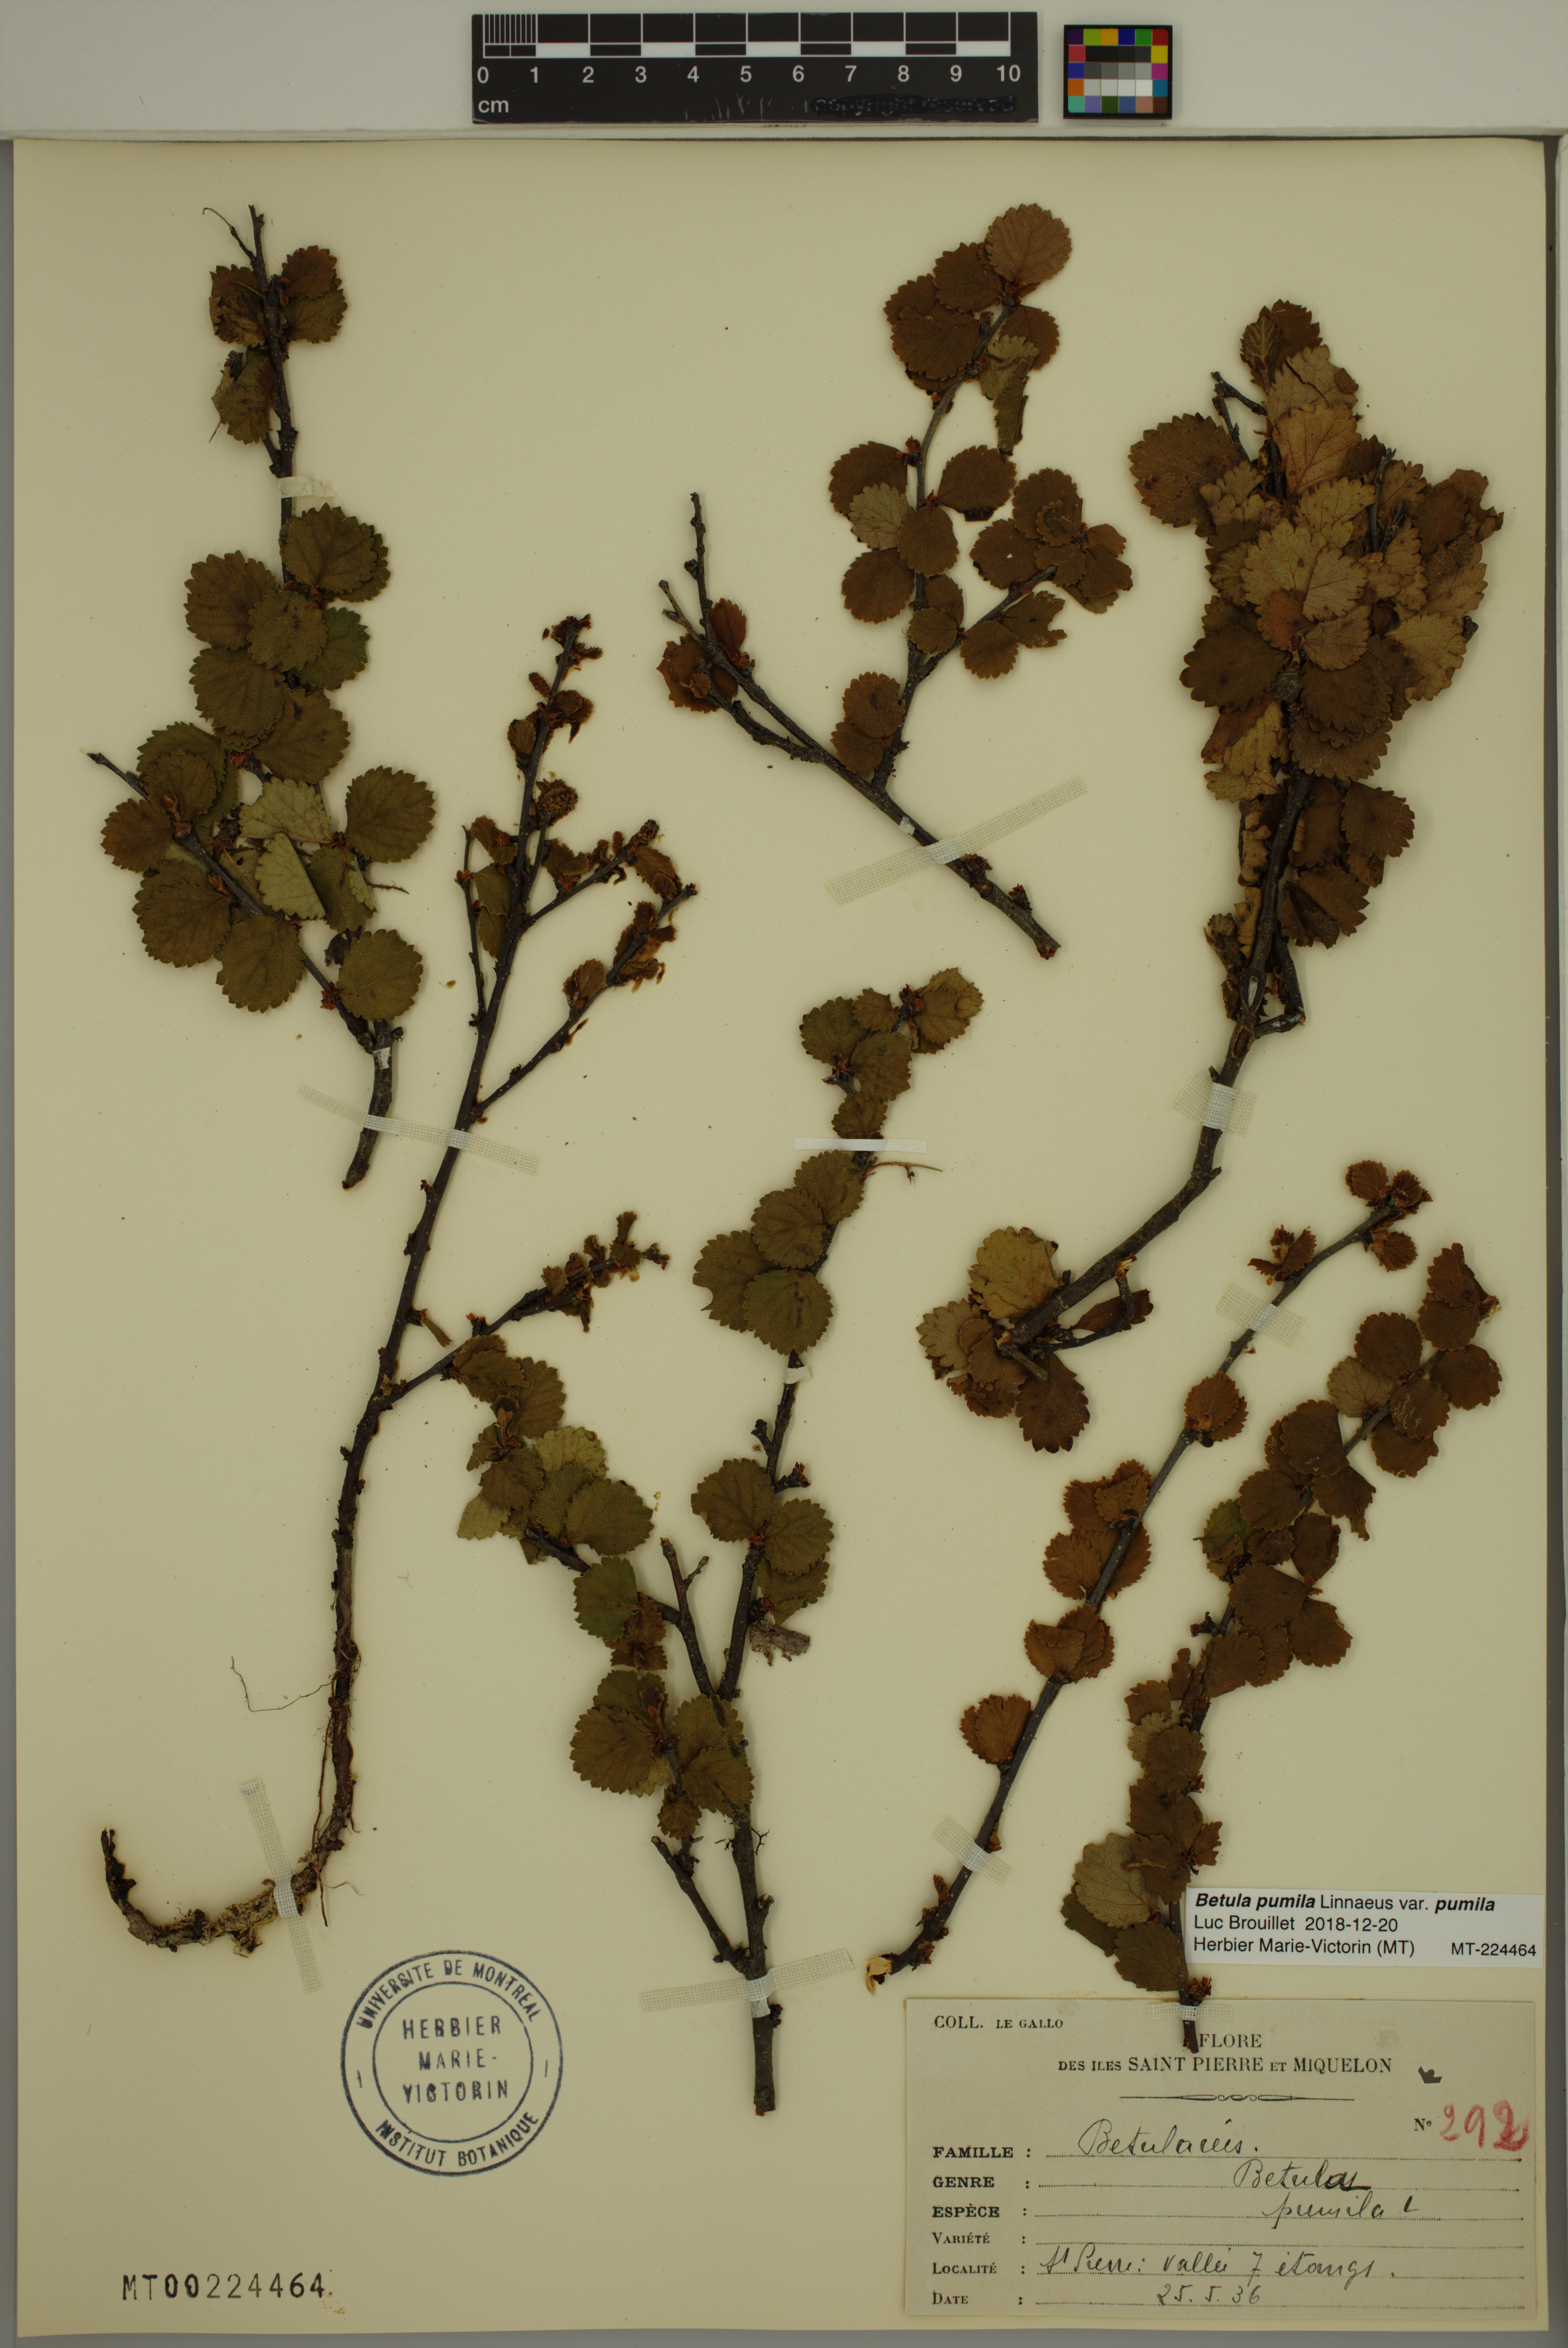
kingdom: Plantae
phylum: Tracheophyta
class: Magnoliopsida
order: Fagales
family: Betulaceae
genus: Betula
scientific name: Betula pumila
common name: Bog birch
